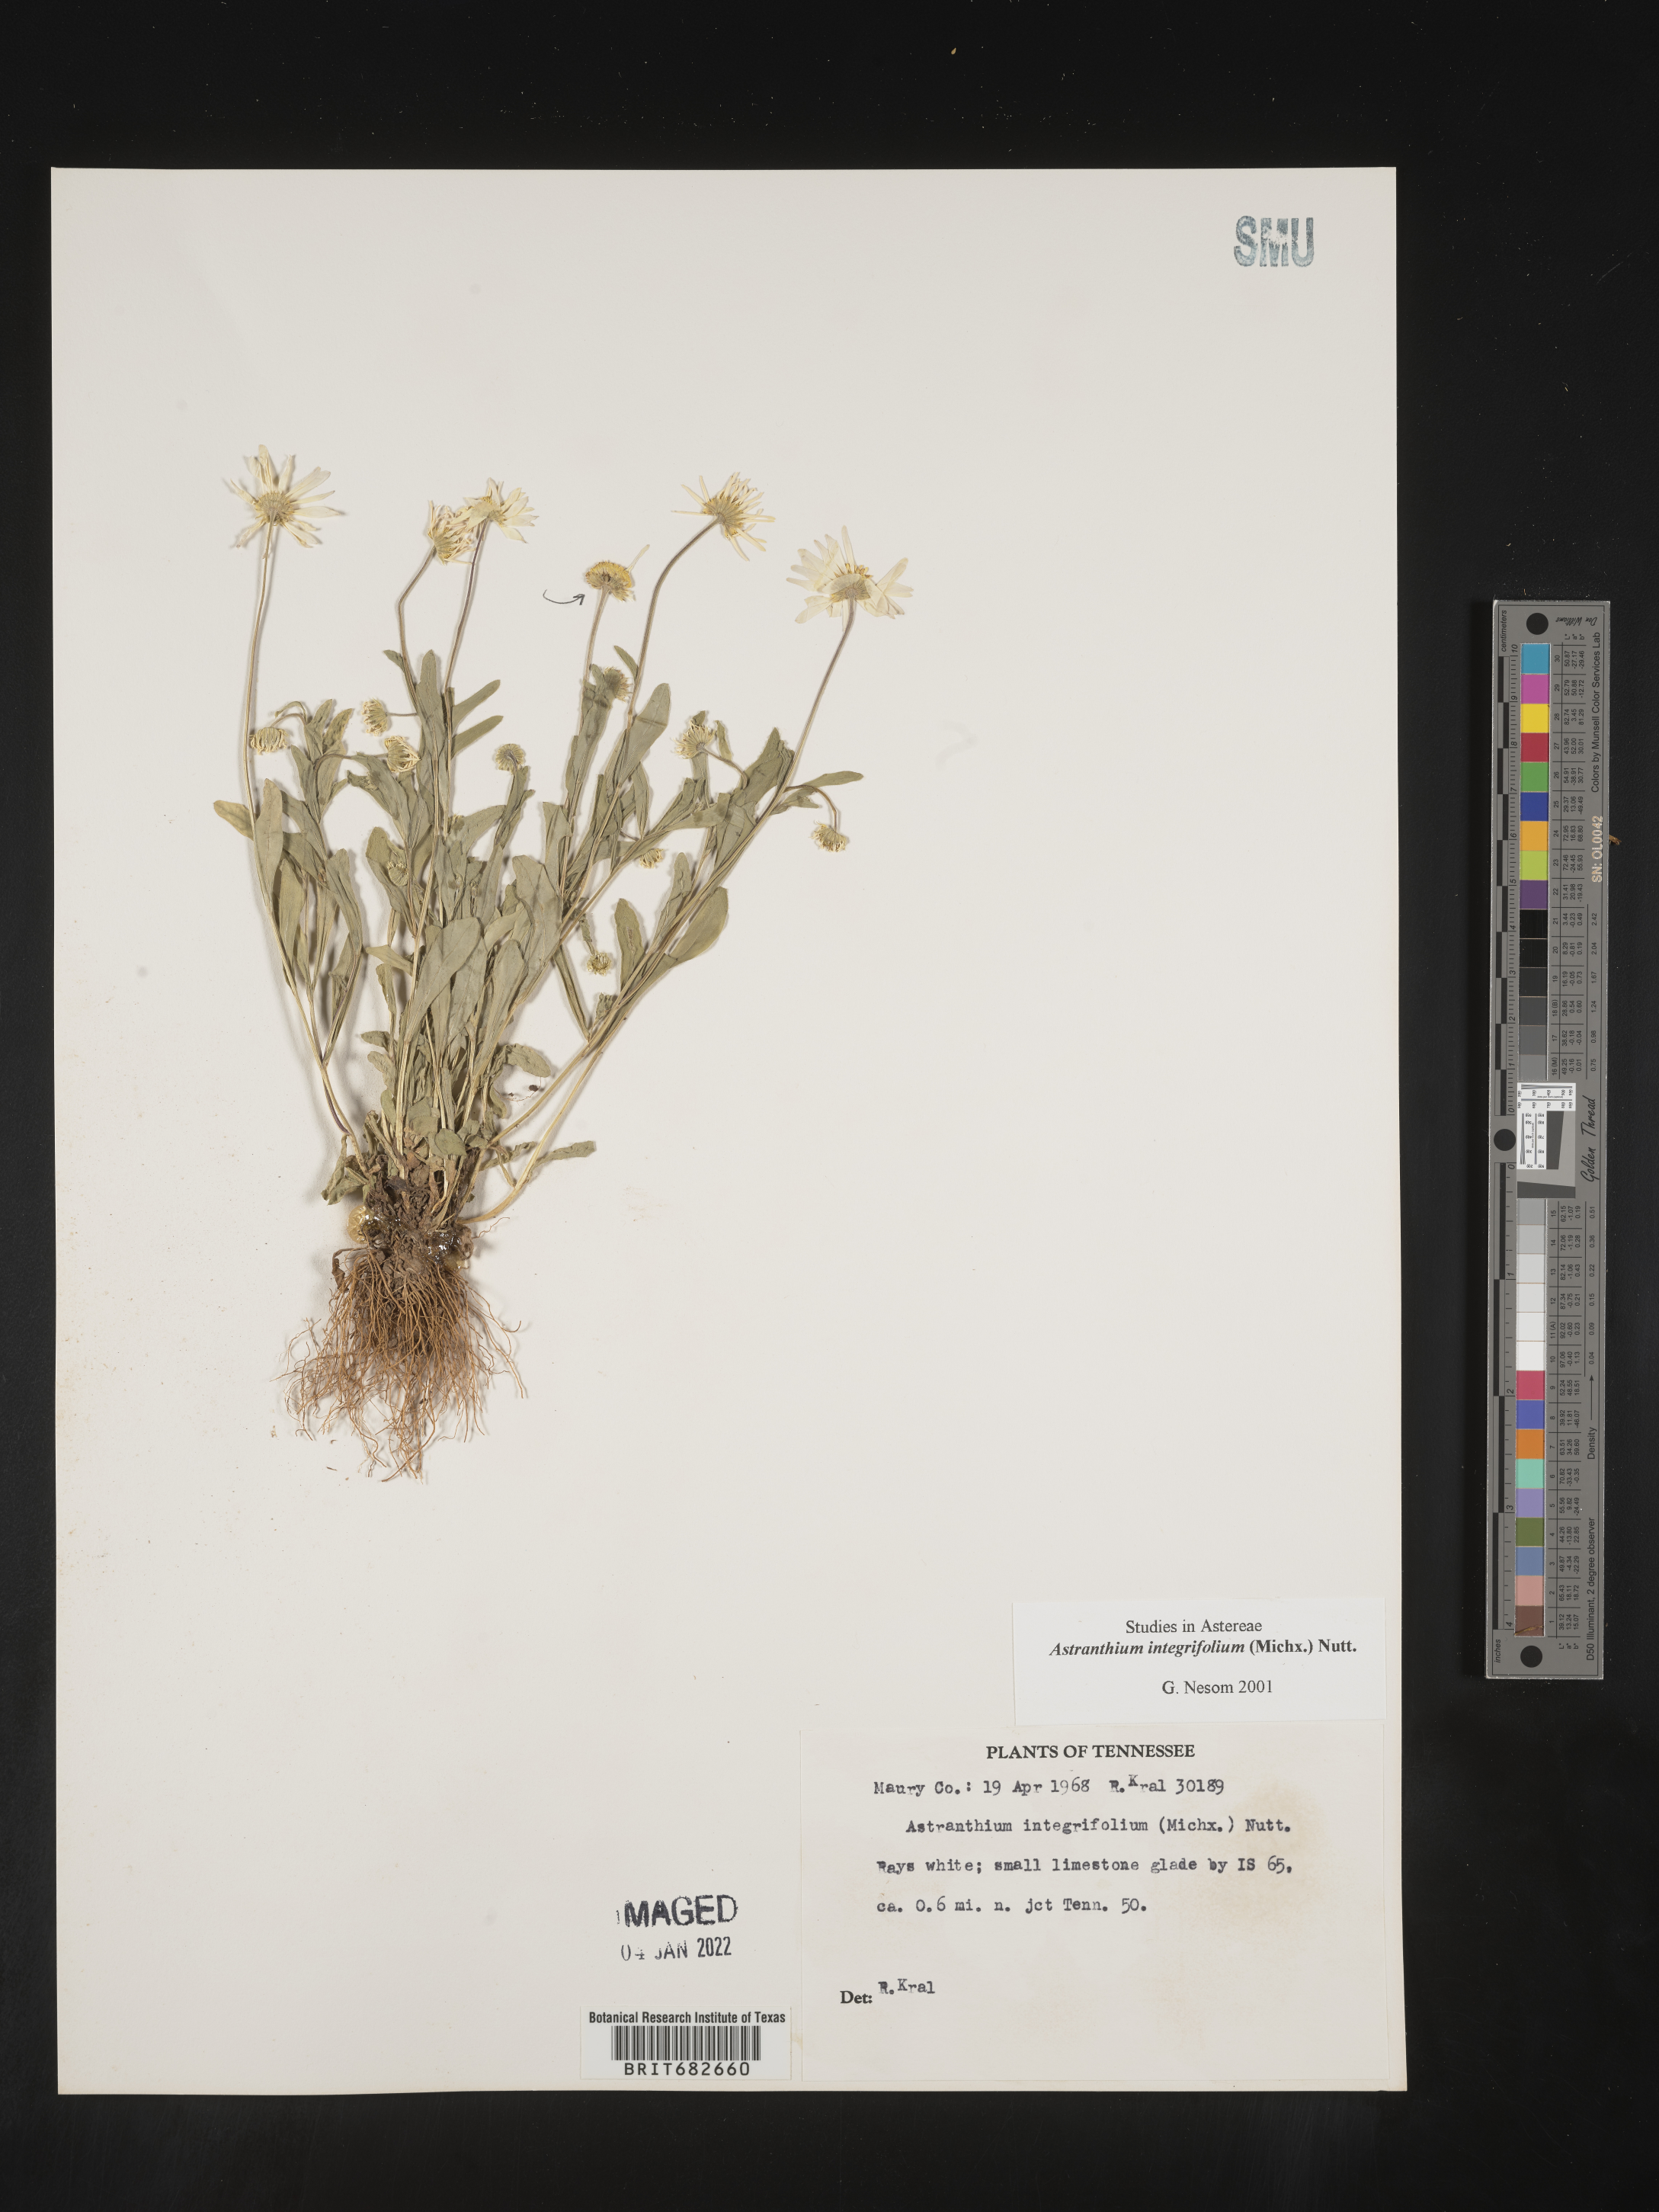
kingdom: Plantae
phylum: Tracheophyta
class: Magnoliopsida
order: Asterales
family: Asteraceae
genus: Astranthium
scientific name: Astranthium
